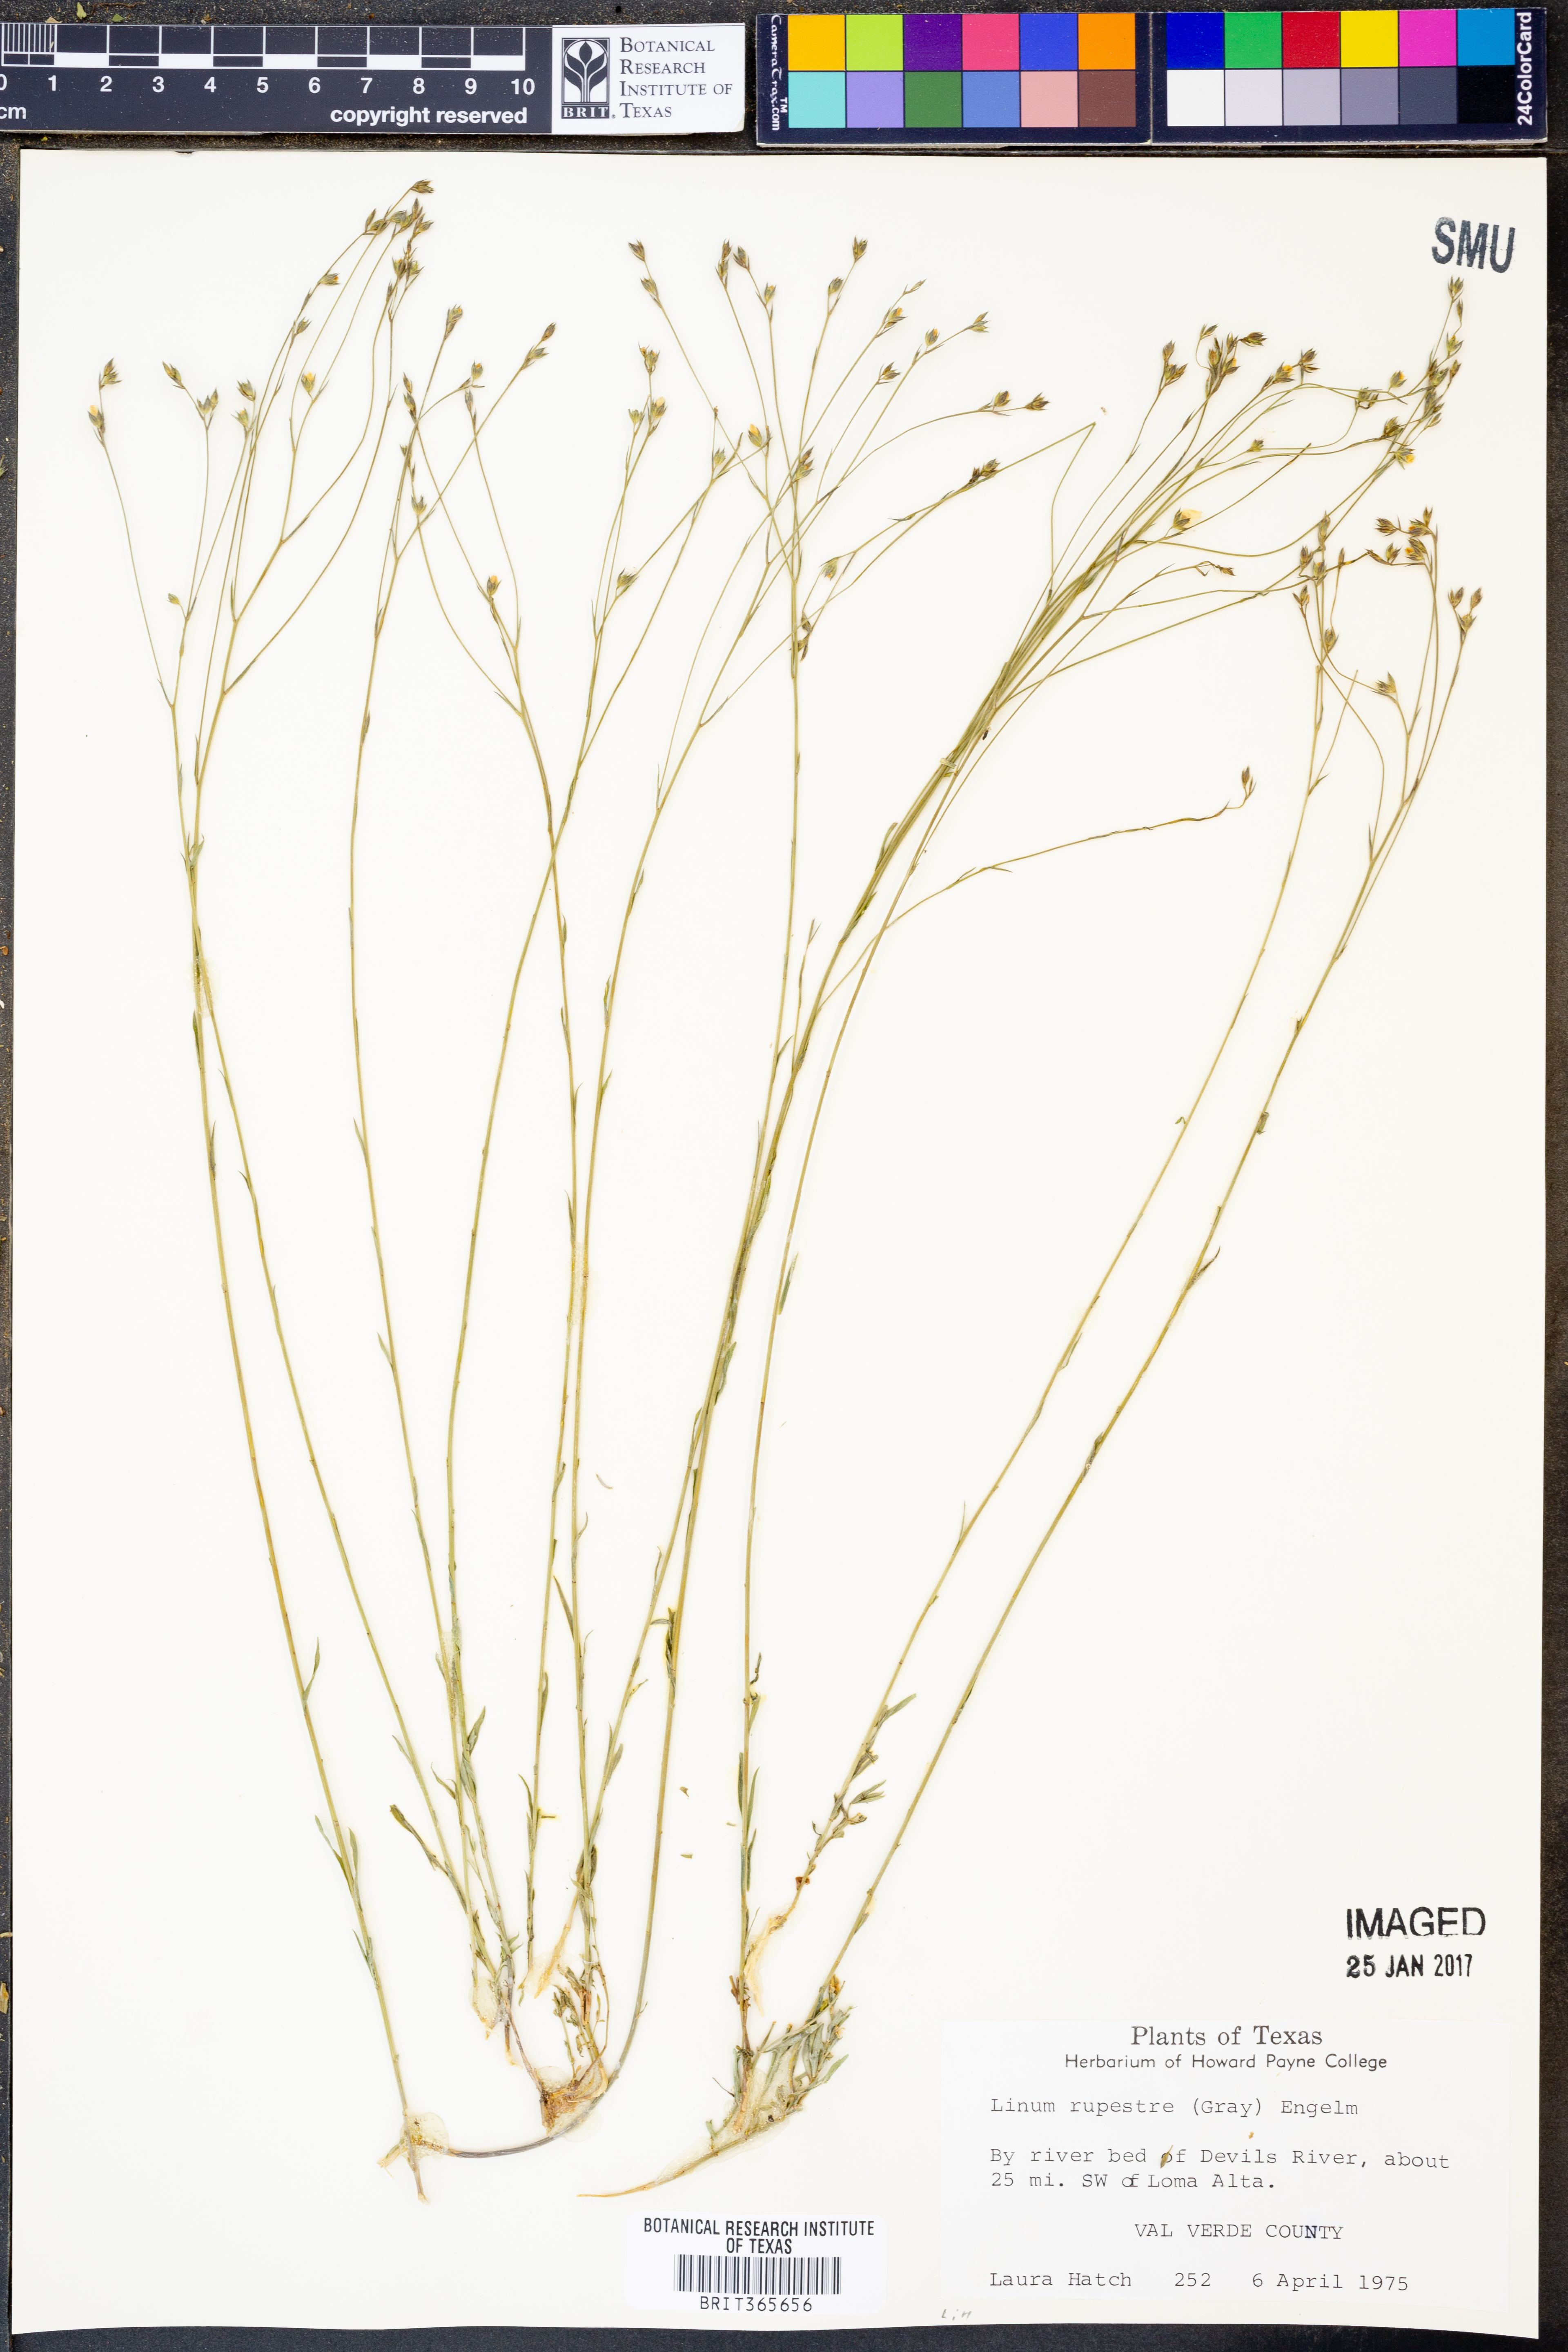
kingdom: Plantae
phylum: Tracheophyta
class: Magnoliopsida
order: Malpighiales
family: Linaceae
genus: Linum
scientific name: Linum rupestre
